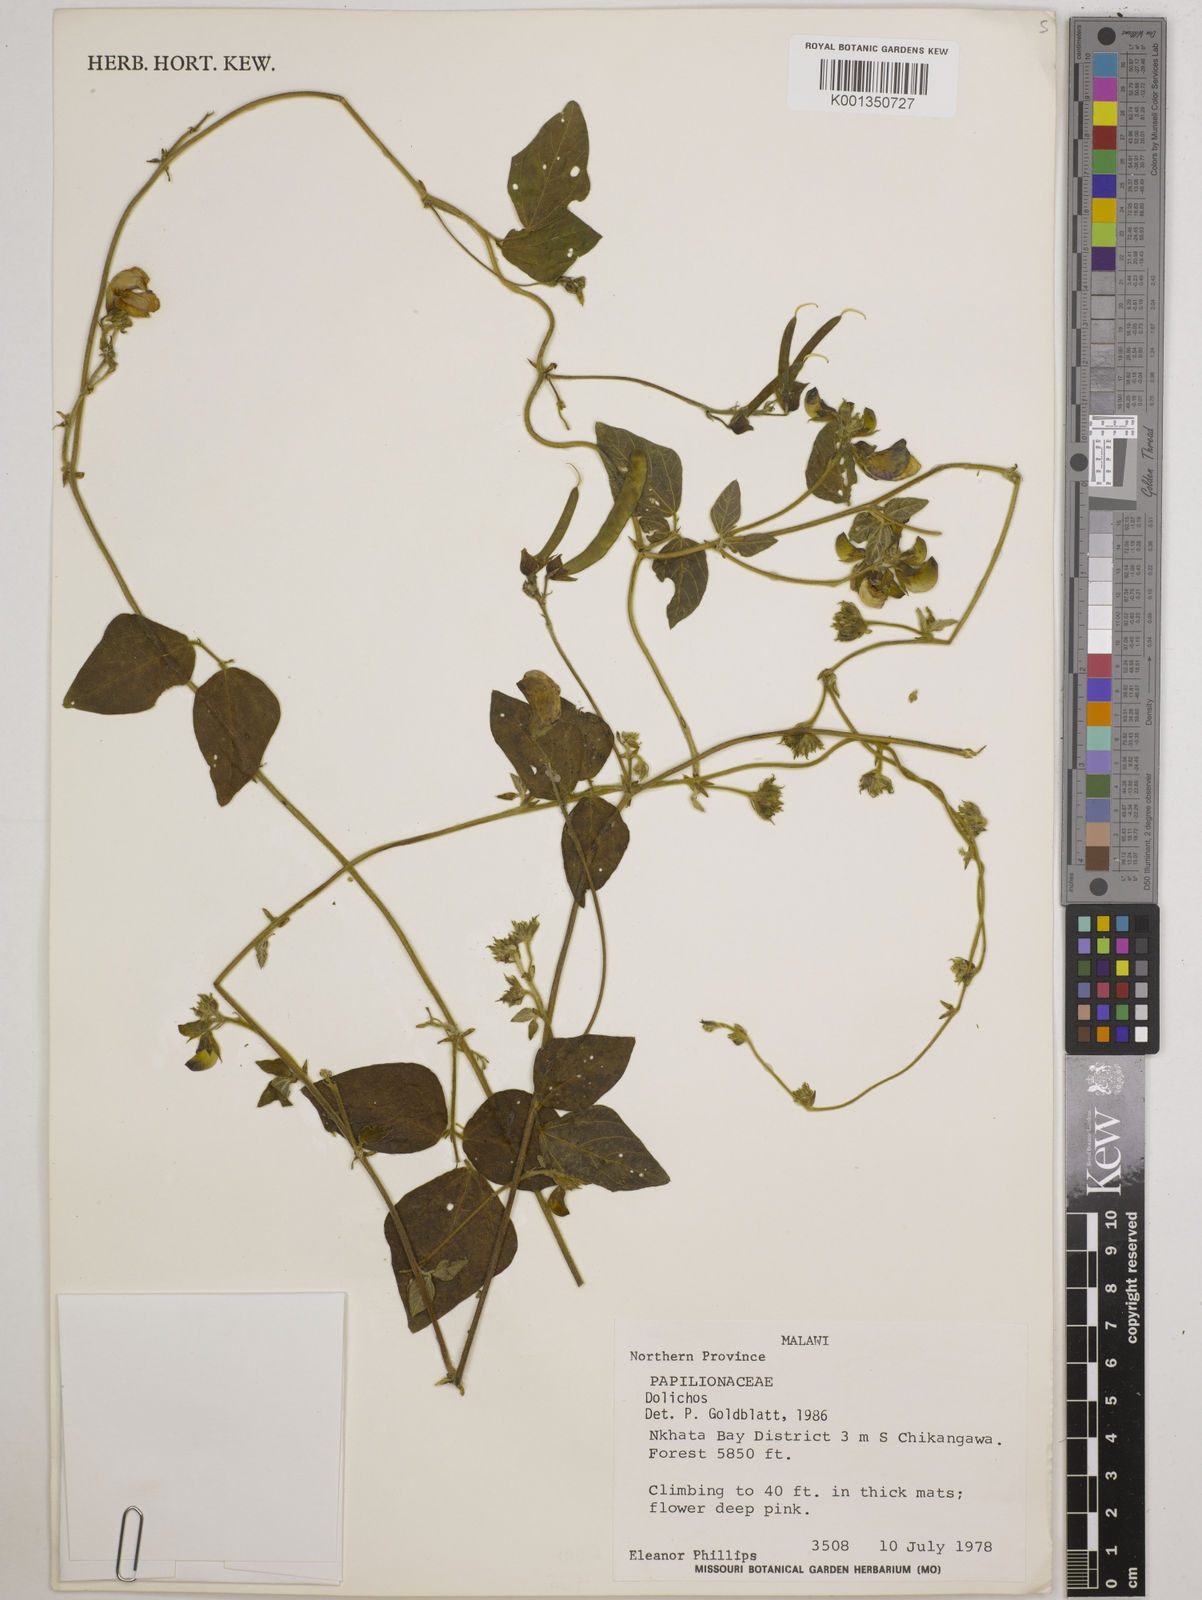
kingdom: Plantae
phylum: Tracheophyta
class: Magnoliopsida
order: Fabales
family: Fabaceae
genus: Dolichos
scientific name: Dolichos
